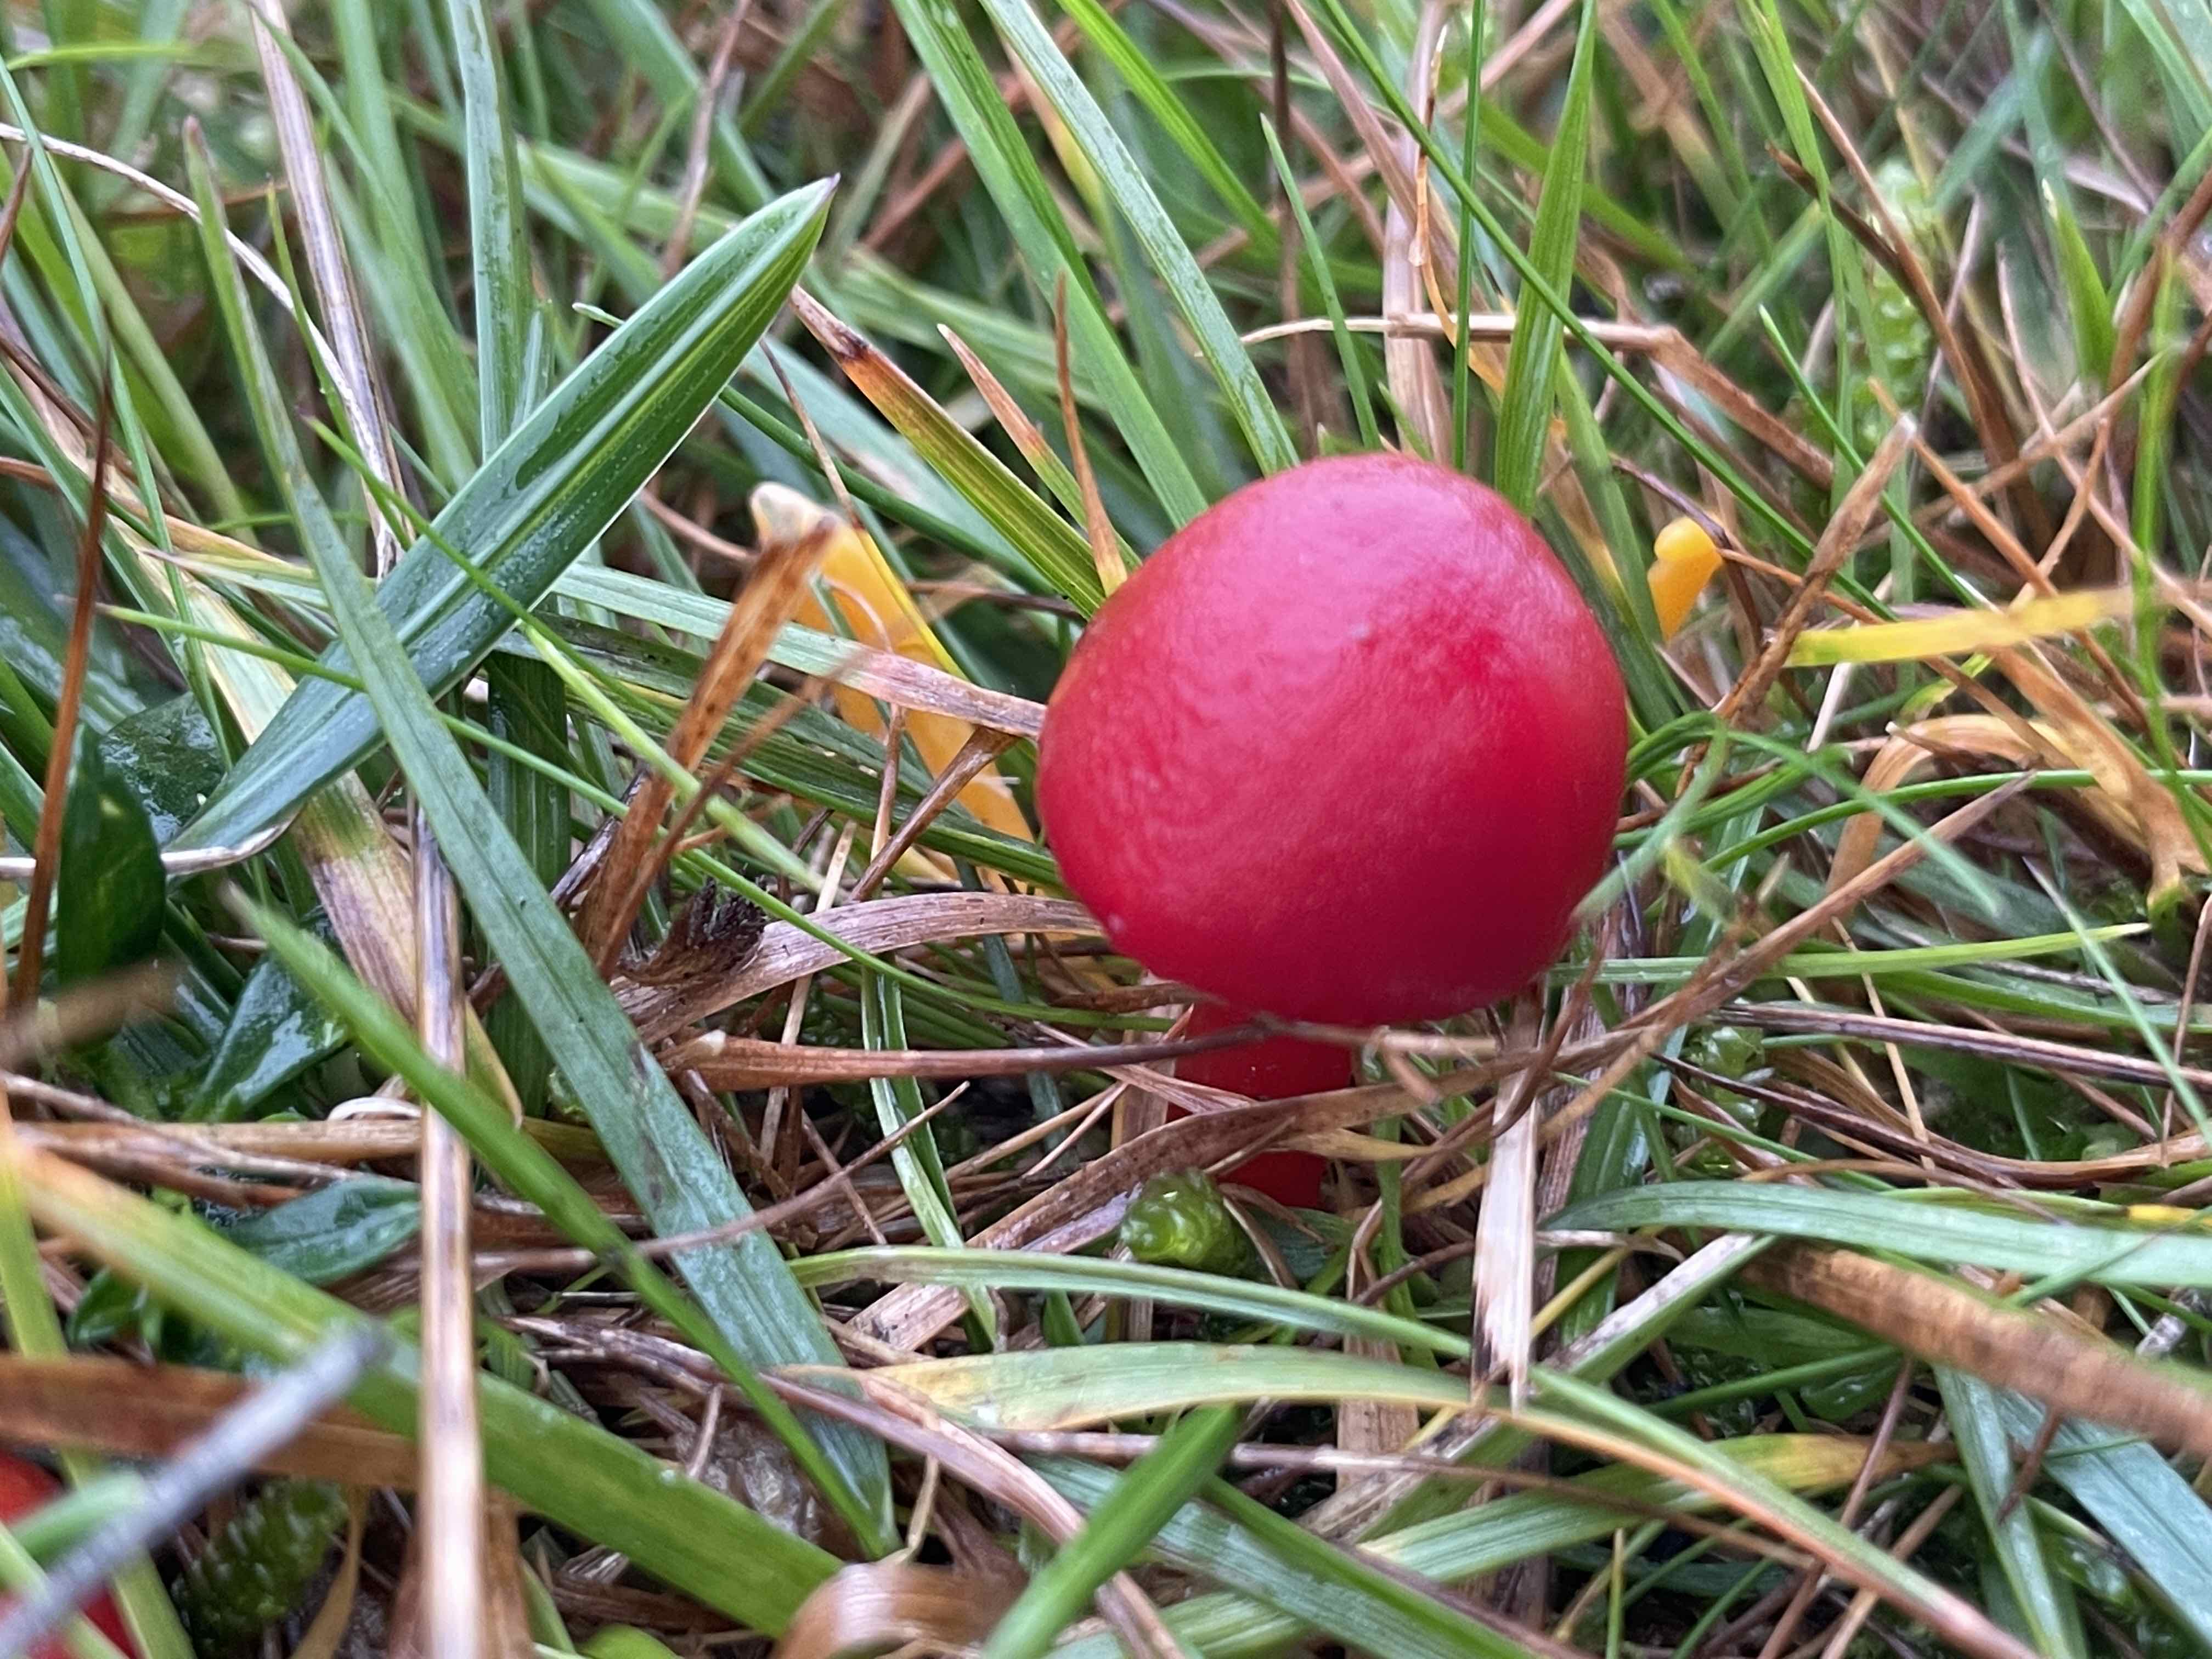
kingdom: Fungi
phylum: Basidiomycota
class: Agaricomycetes
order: Agaricales
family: Hygrophoraceae
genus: Hygrocybe
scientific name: Hygrocybe coccinea
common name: cinnober-vokshat
